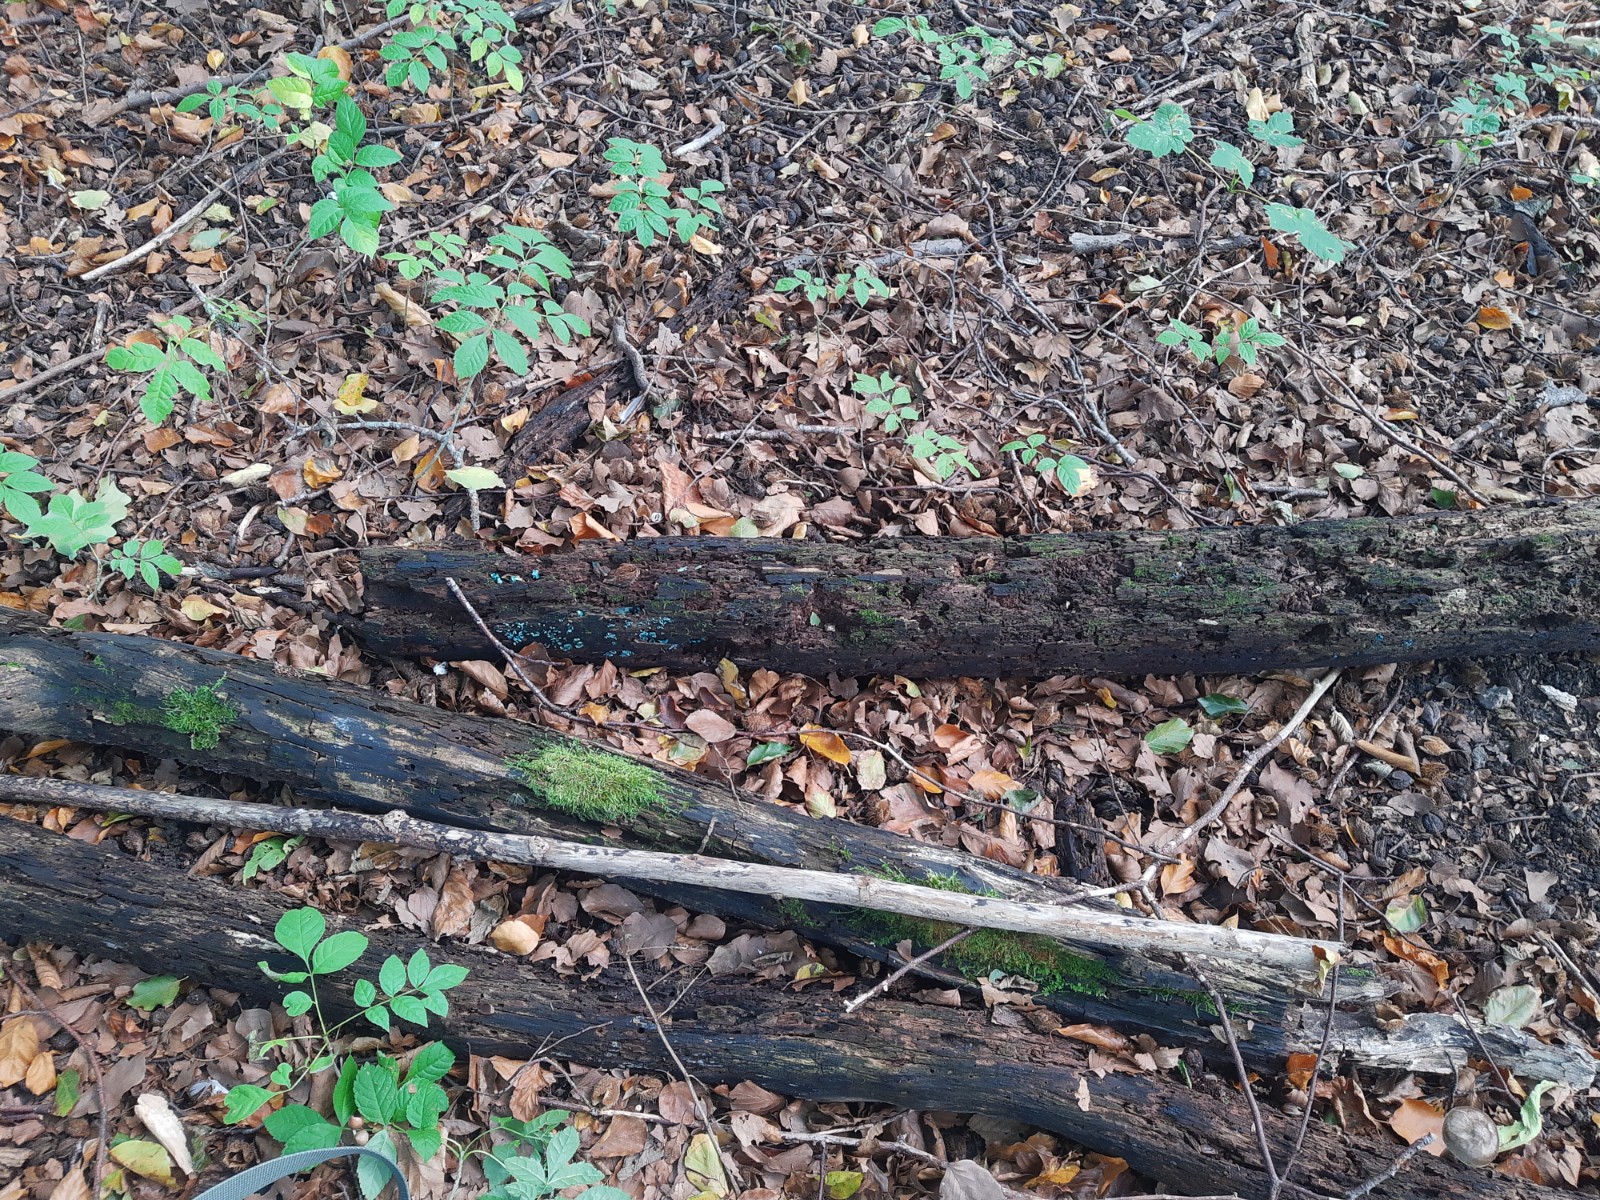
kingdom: Fungi
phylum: Ascomycota
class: Leotiomycetes
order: Helotiales
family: Chlorociboriaceae
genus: Chlorociboria
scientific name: Chlorociboria aeruginascens
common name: almindelig grønskive
